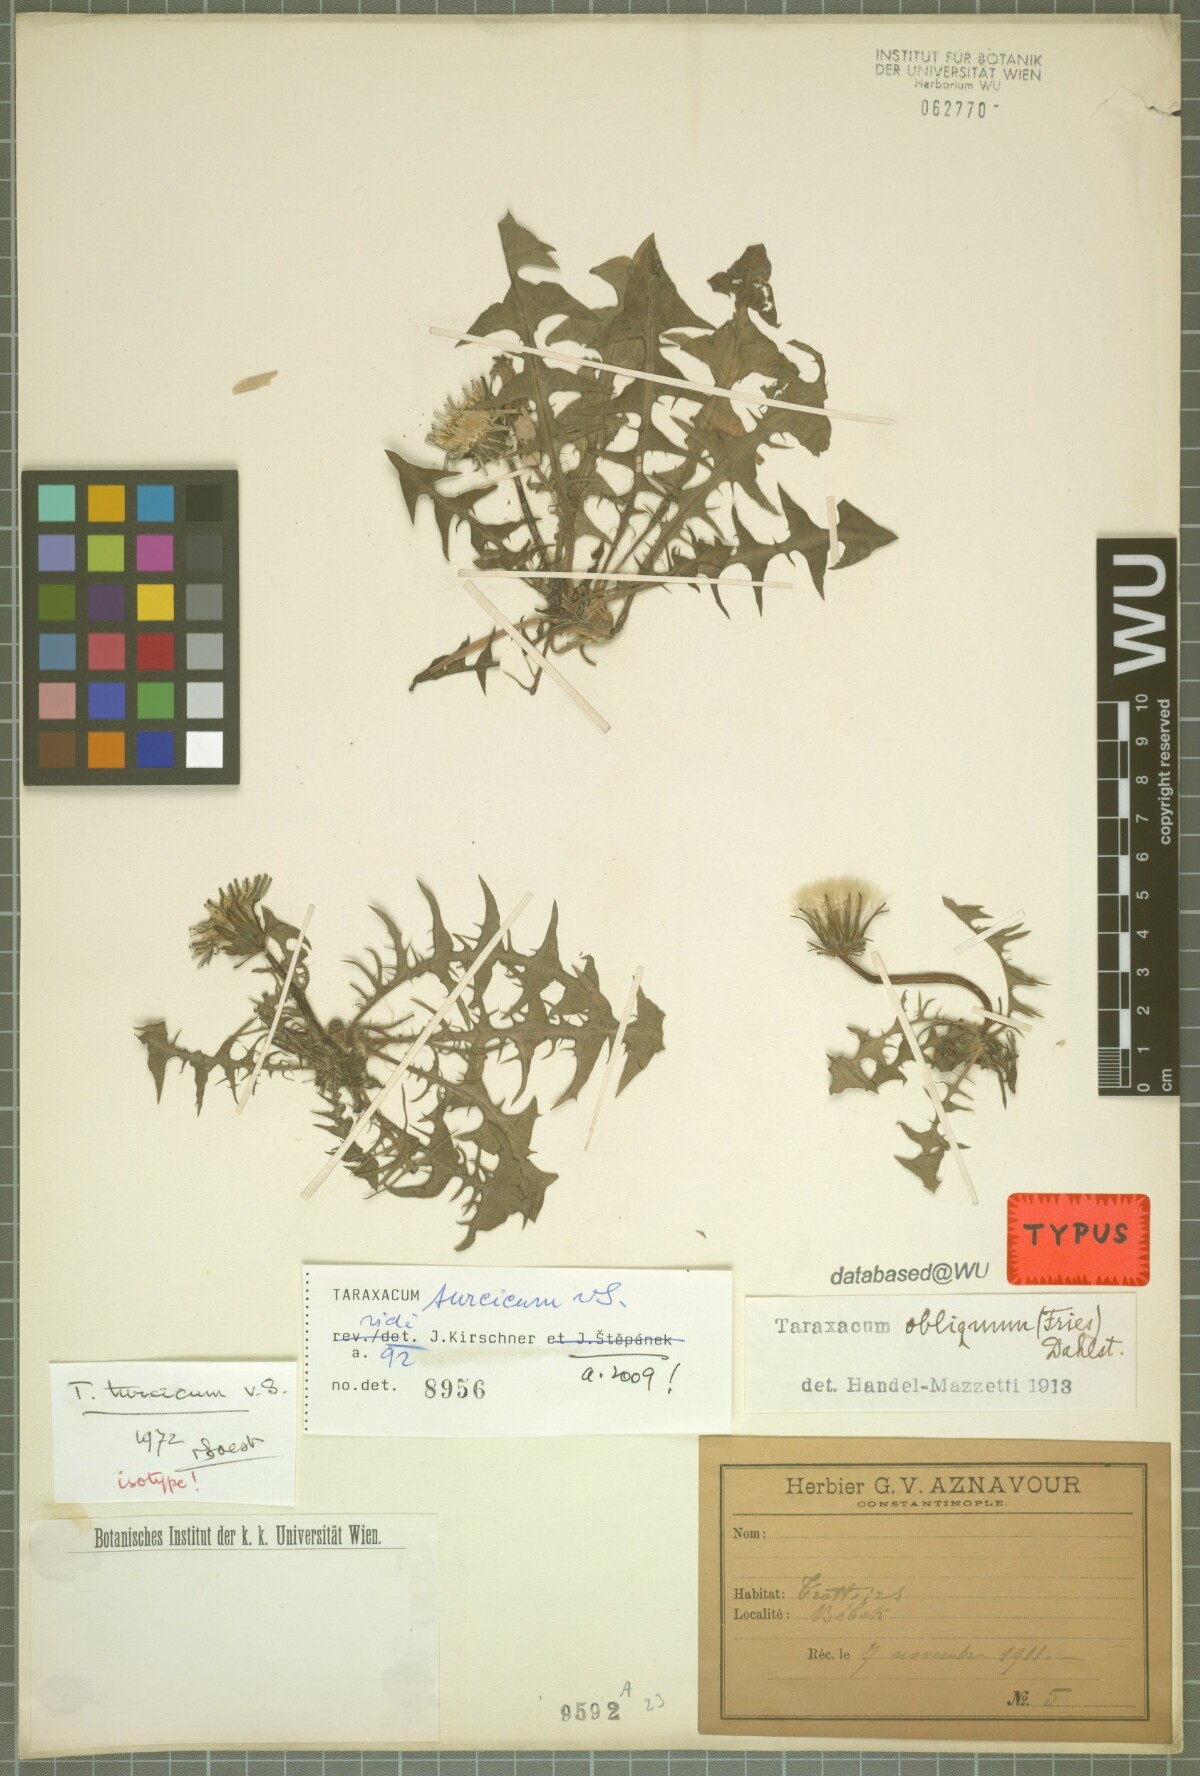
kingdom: Plantae
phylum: Tracheophyta
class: Magnoliopsida
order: Asterales
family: Asteraceae
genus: Taraxacum
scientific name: Taraxacum turcicum
